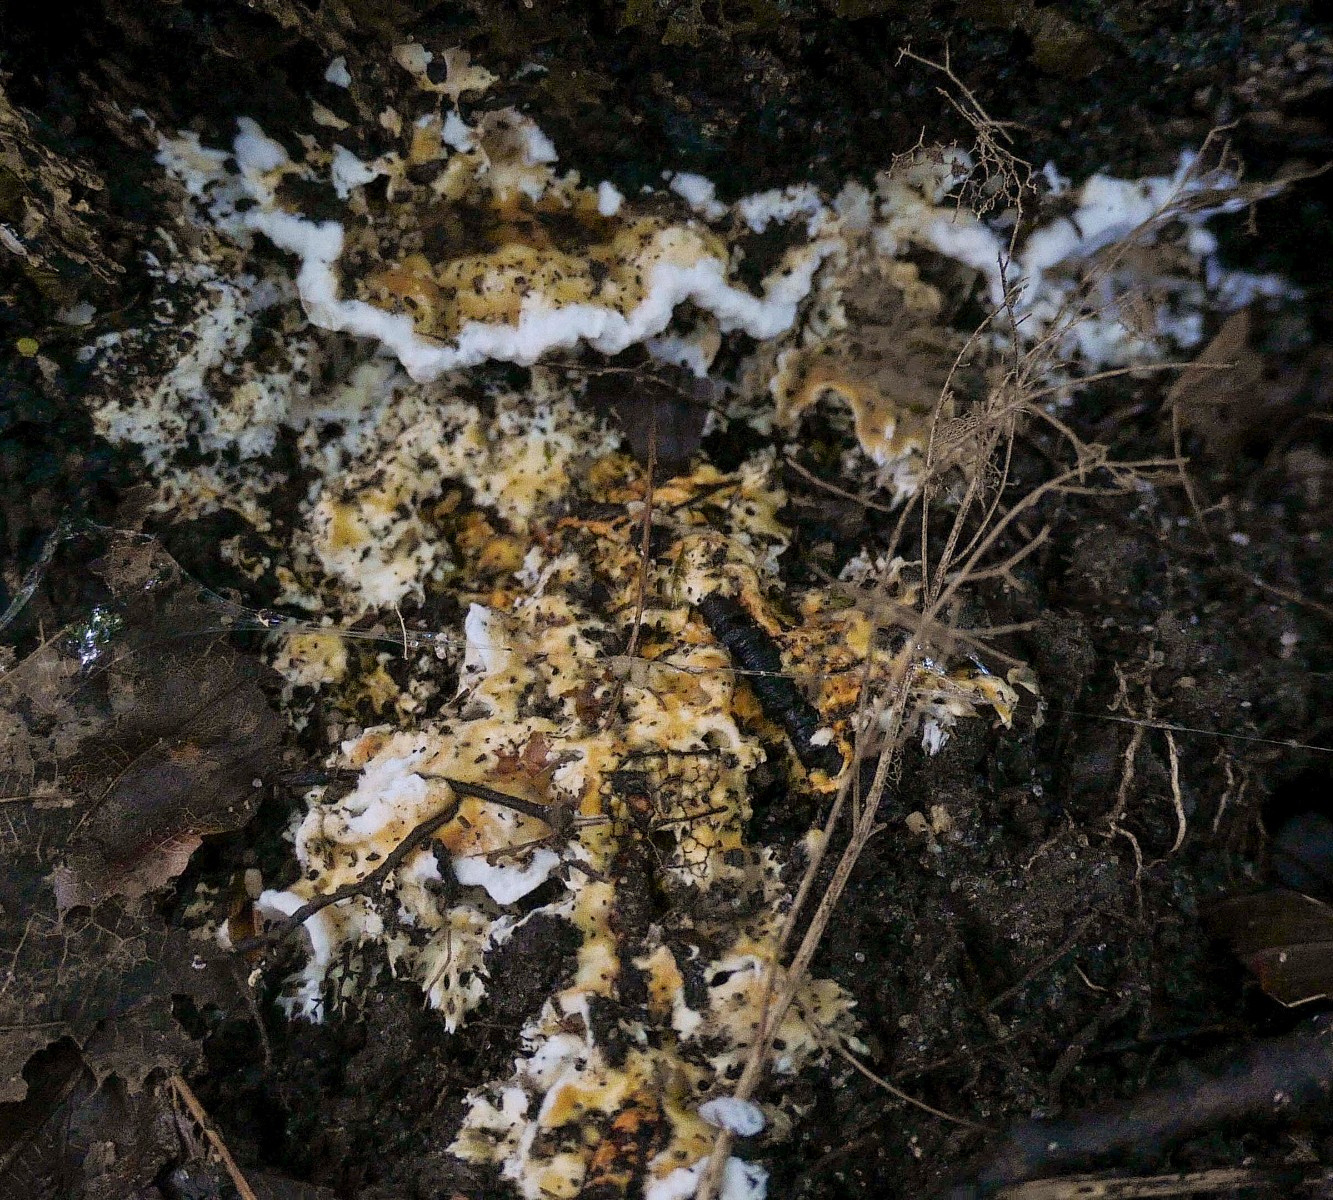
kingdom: Fungi
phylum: Basidiomycota
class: Agaricomycetes
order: Polyporales
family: Steccherinaceae
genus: Loweomyces
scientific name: Loweomyces wynneae
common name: krybende blødporesvamp
